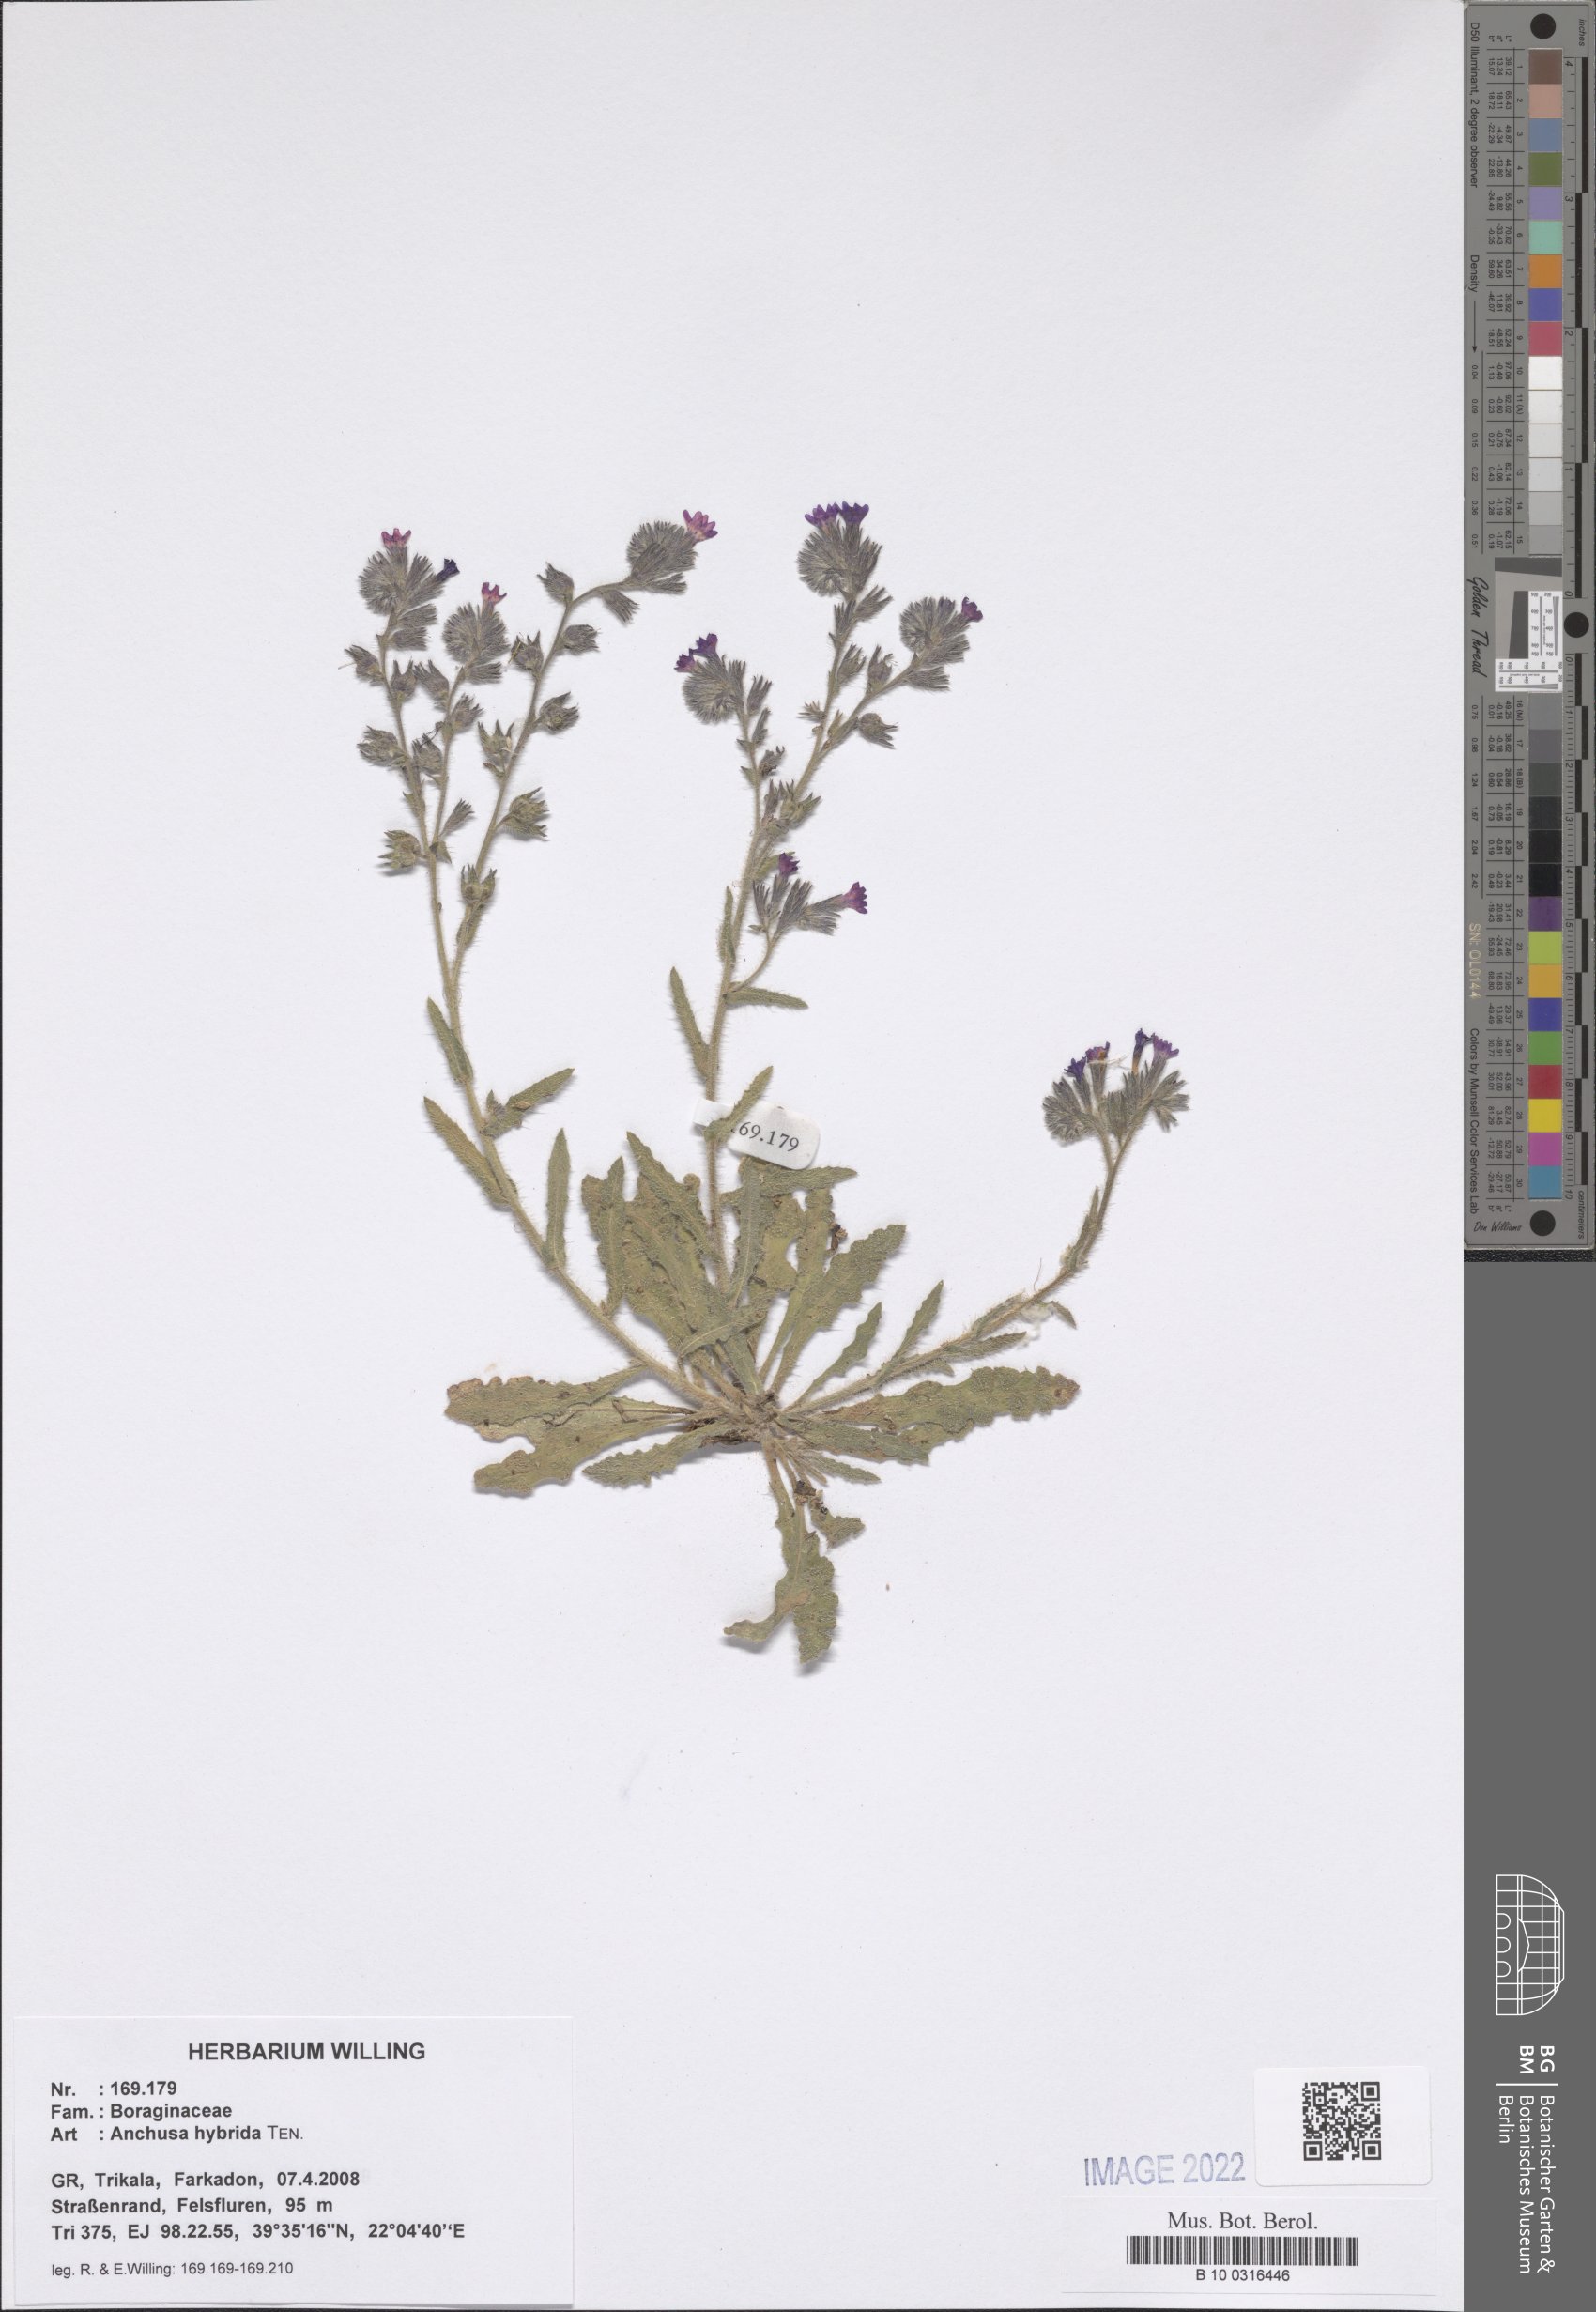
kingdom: Plantae
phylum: Tracheophyta
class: Magnoliopsida
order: Boraginales
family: Boraginaceae
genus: Anchusa
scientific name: Anchusa hybrida
